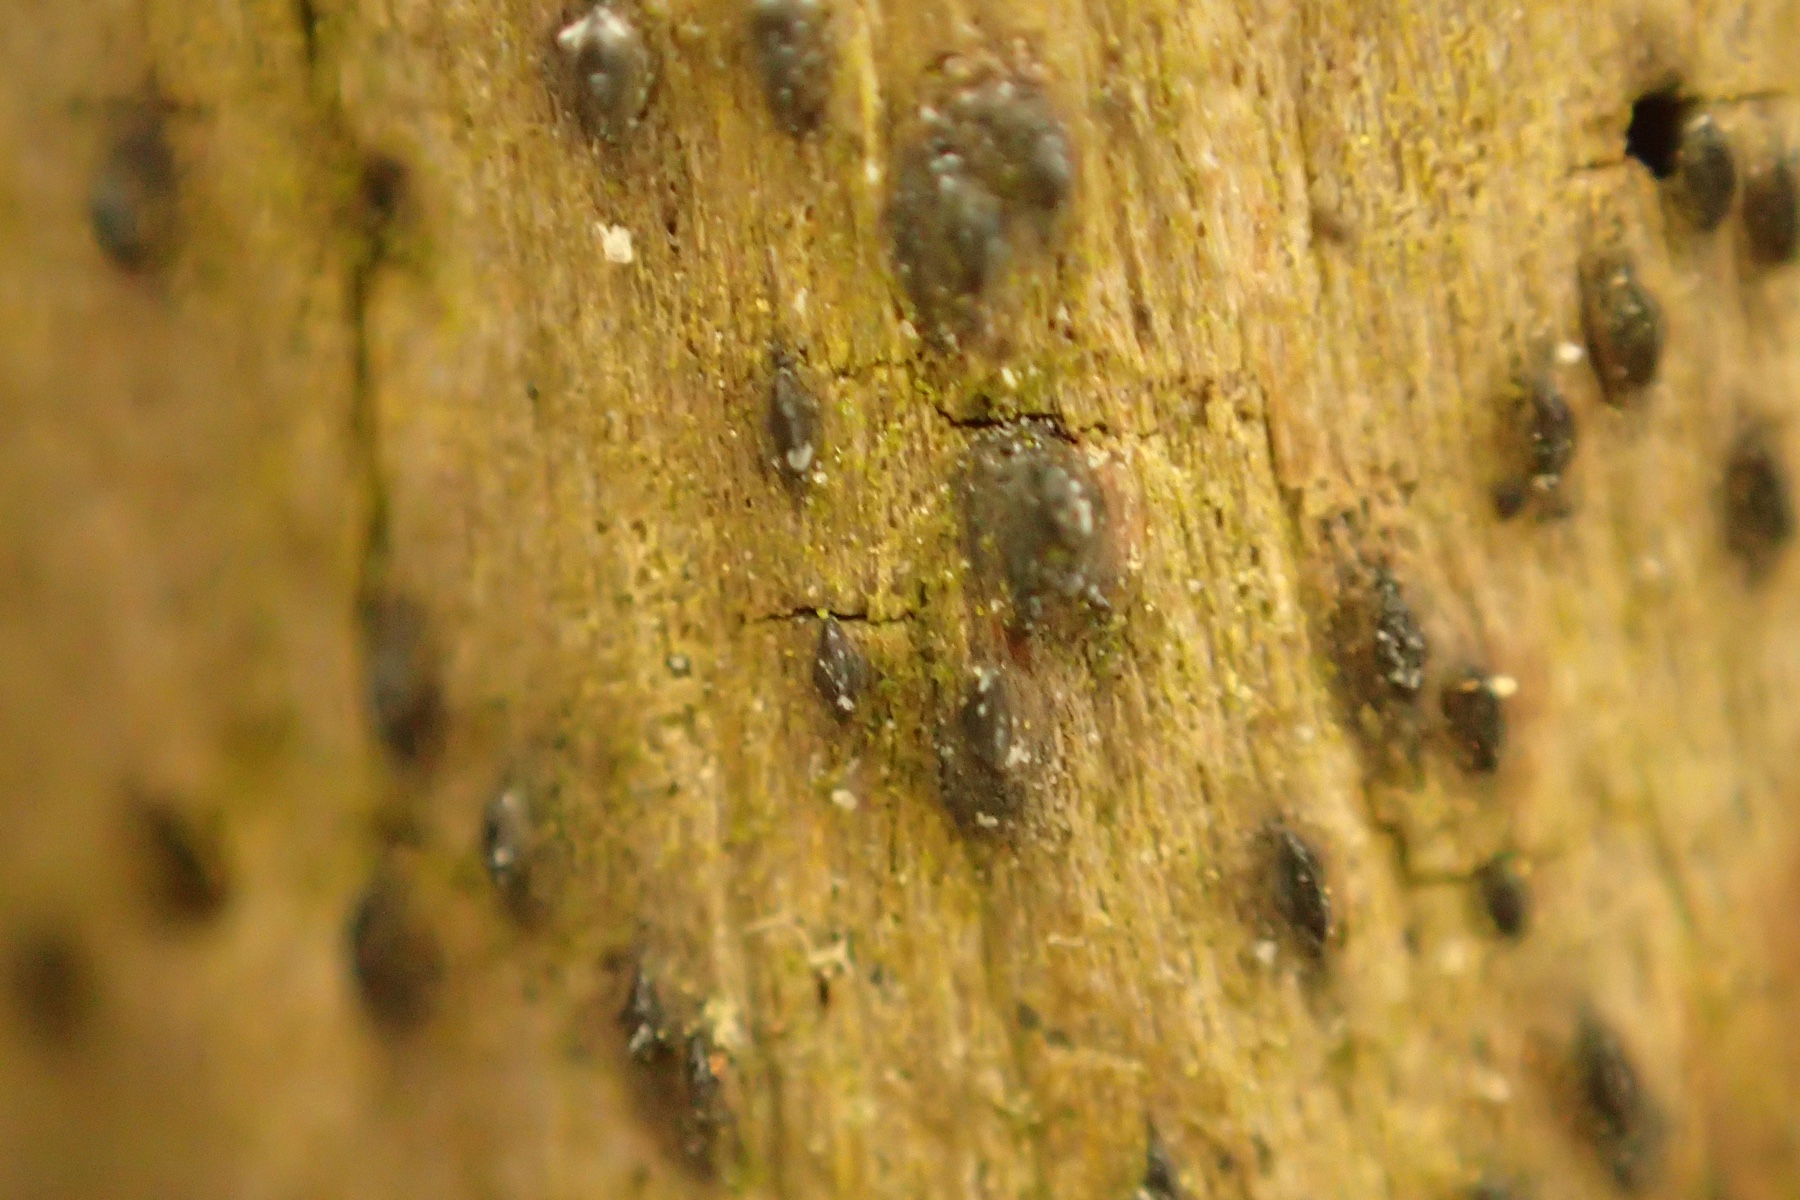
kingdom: Fungi
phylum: Ascomycota
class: Dothideomycetes
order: Pleosporales
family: Thyridariaceae
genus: Thyridaria
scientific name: Thyridaria macrostomoides
